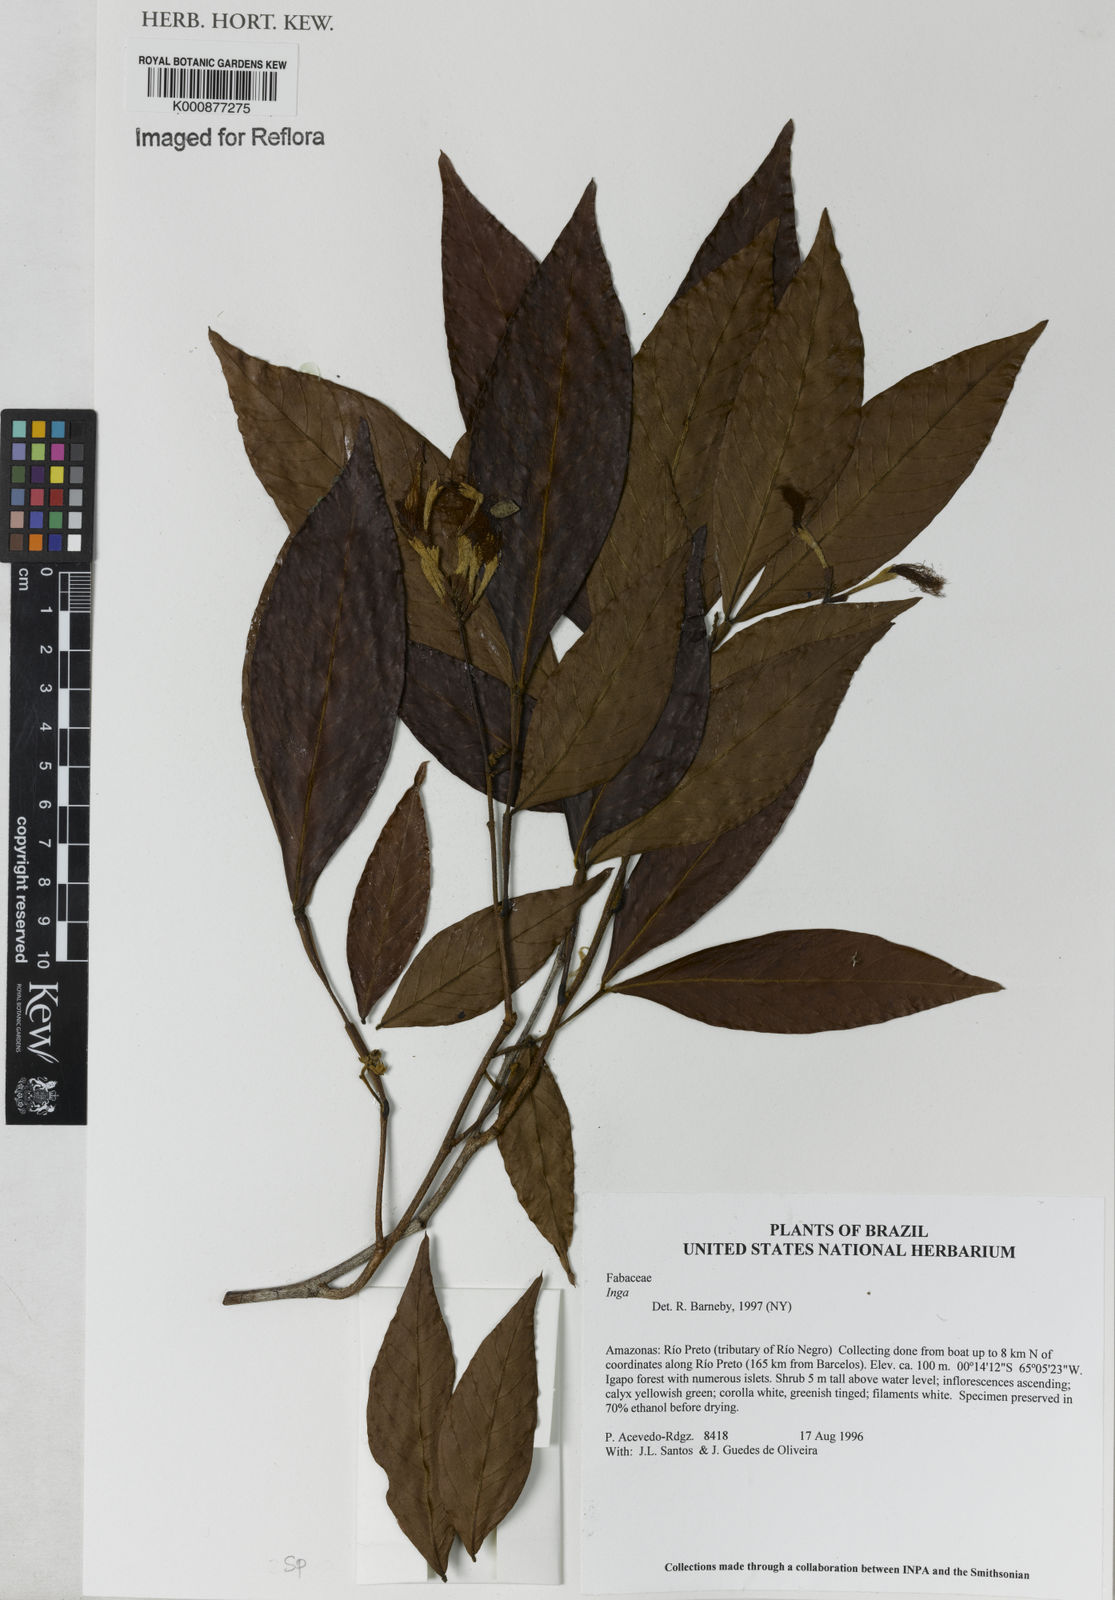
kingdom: Plantae
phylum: Tracheophyta
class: Magnoliopsida
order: Fabales
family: Fabaceae
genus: Inga
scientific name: Inga
